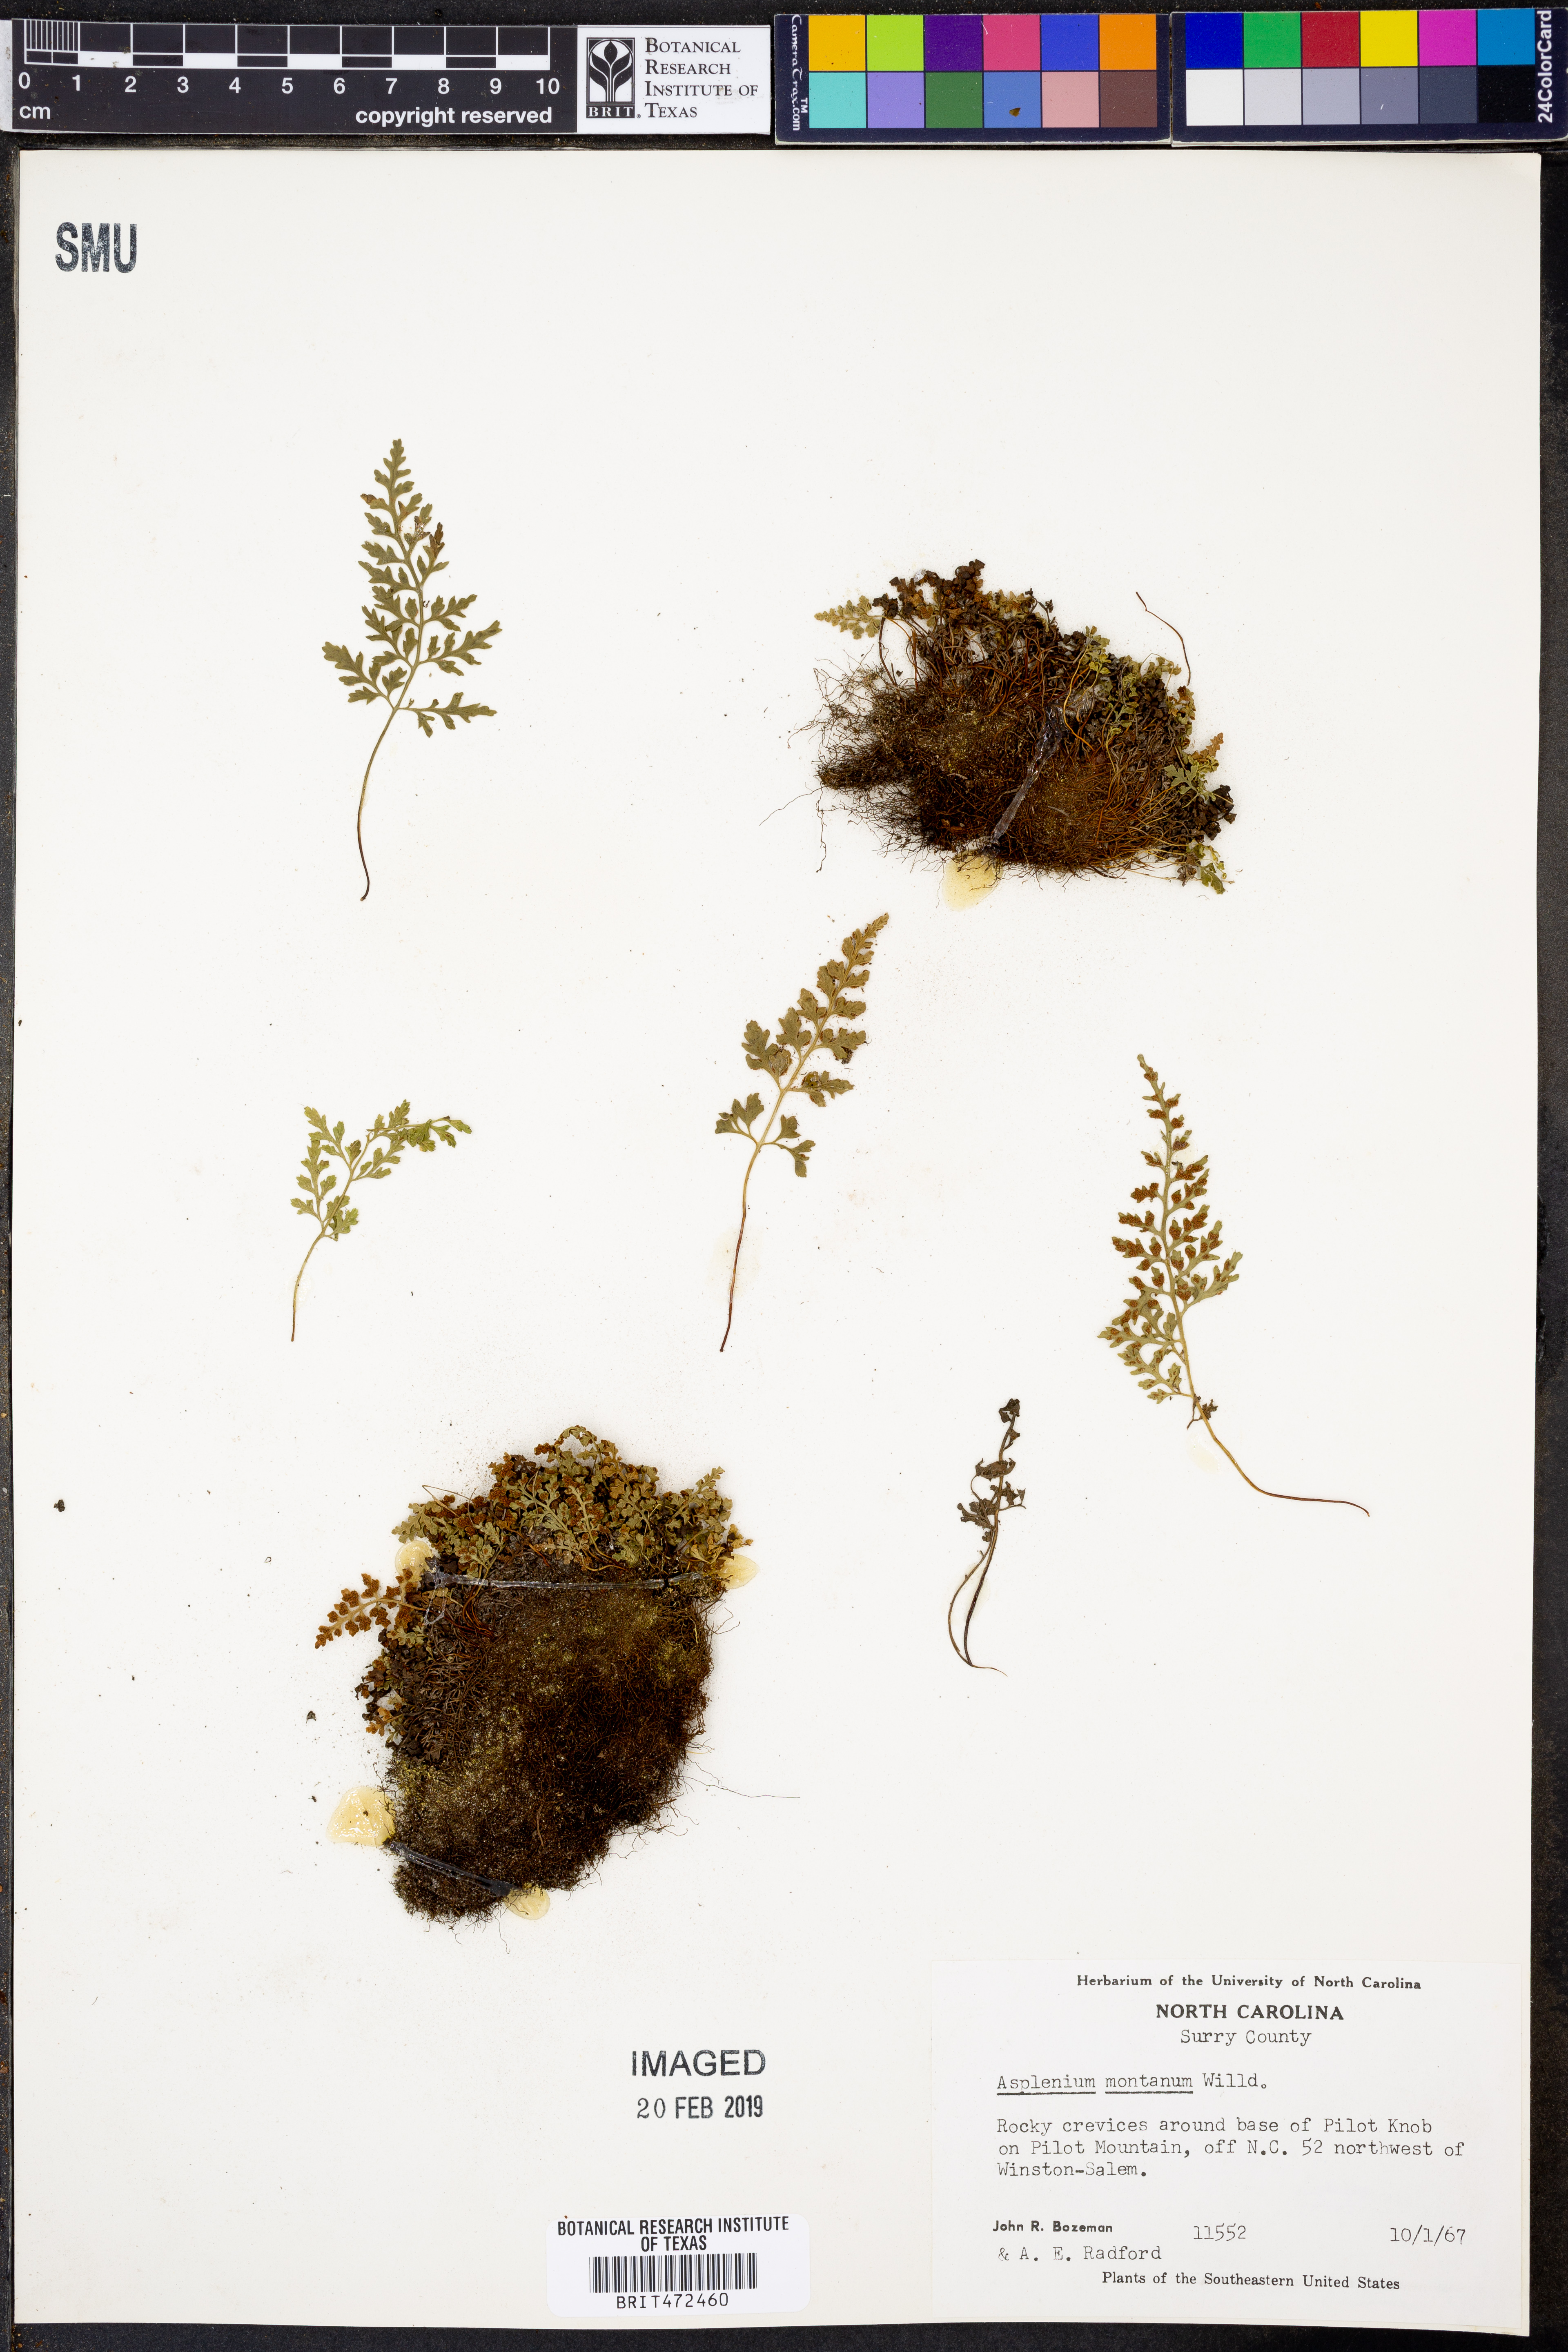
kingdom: Plantae
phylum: Tracheophyta
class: Polypodiopsida
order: Polypodiales
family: Aspleniaceae
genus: Asplenium
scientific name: Asplenium montanum
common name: Mountain spleenwort
